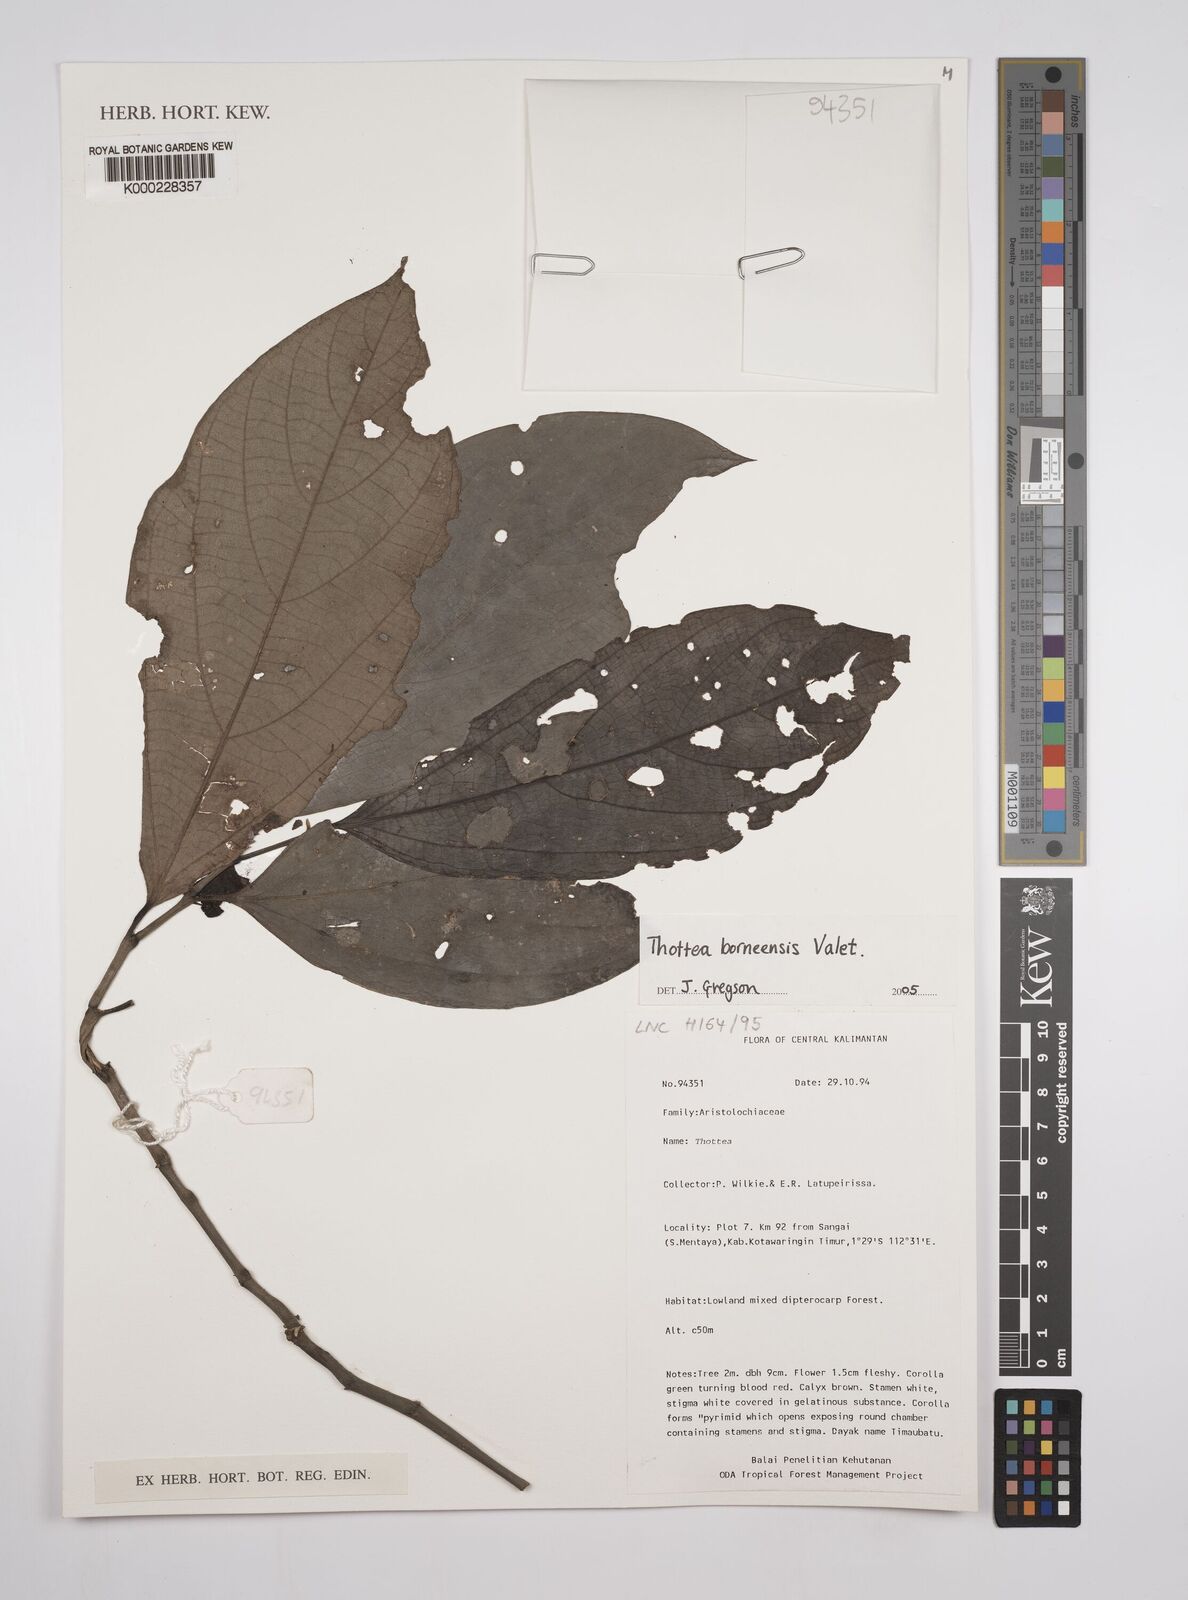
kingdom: Plantae
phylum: Tracheophyta
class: Magnoliopsida
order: Piperales
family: Aristolochiaceae
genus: Thottea
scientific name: Thottea borneensis
